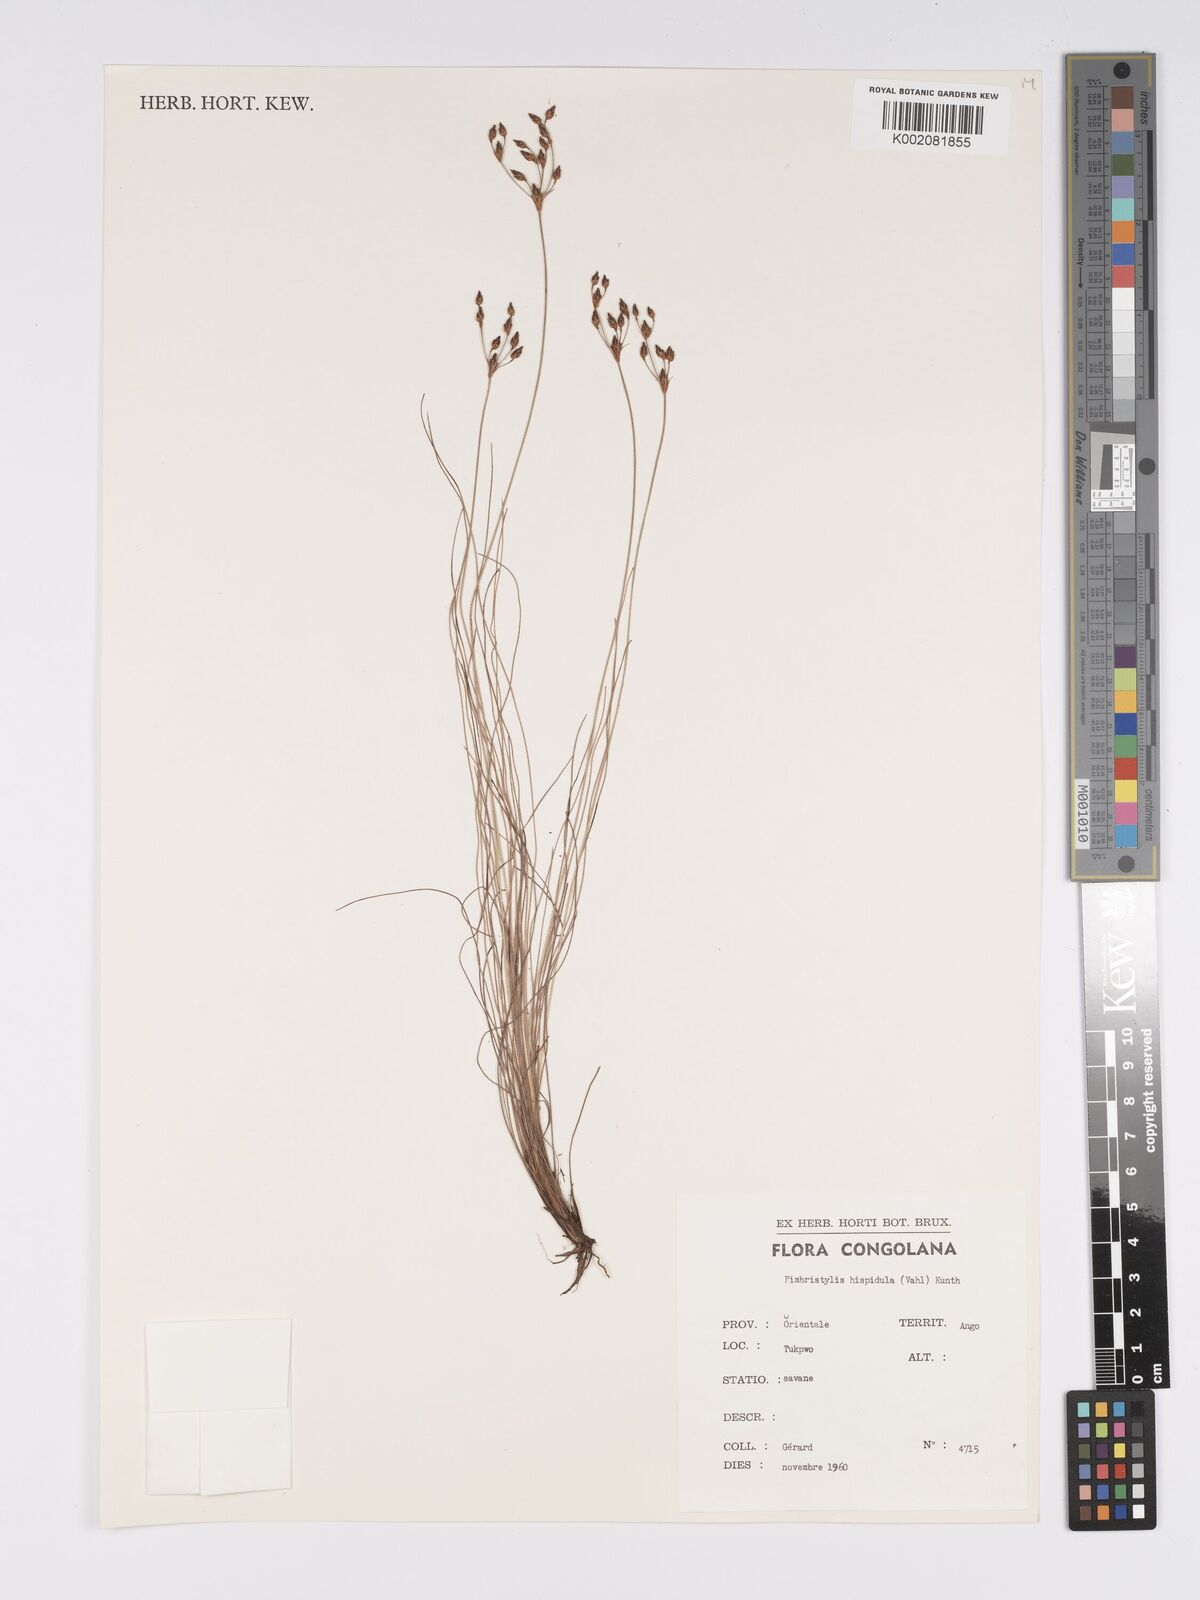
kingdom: Plantae
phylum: Tracheophyta
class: Liliopsida
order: Poales
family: Cyperaceae
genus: Bulbostylis
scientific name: Bulbostylis hispidula
